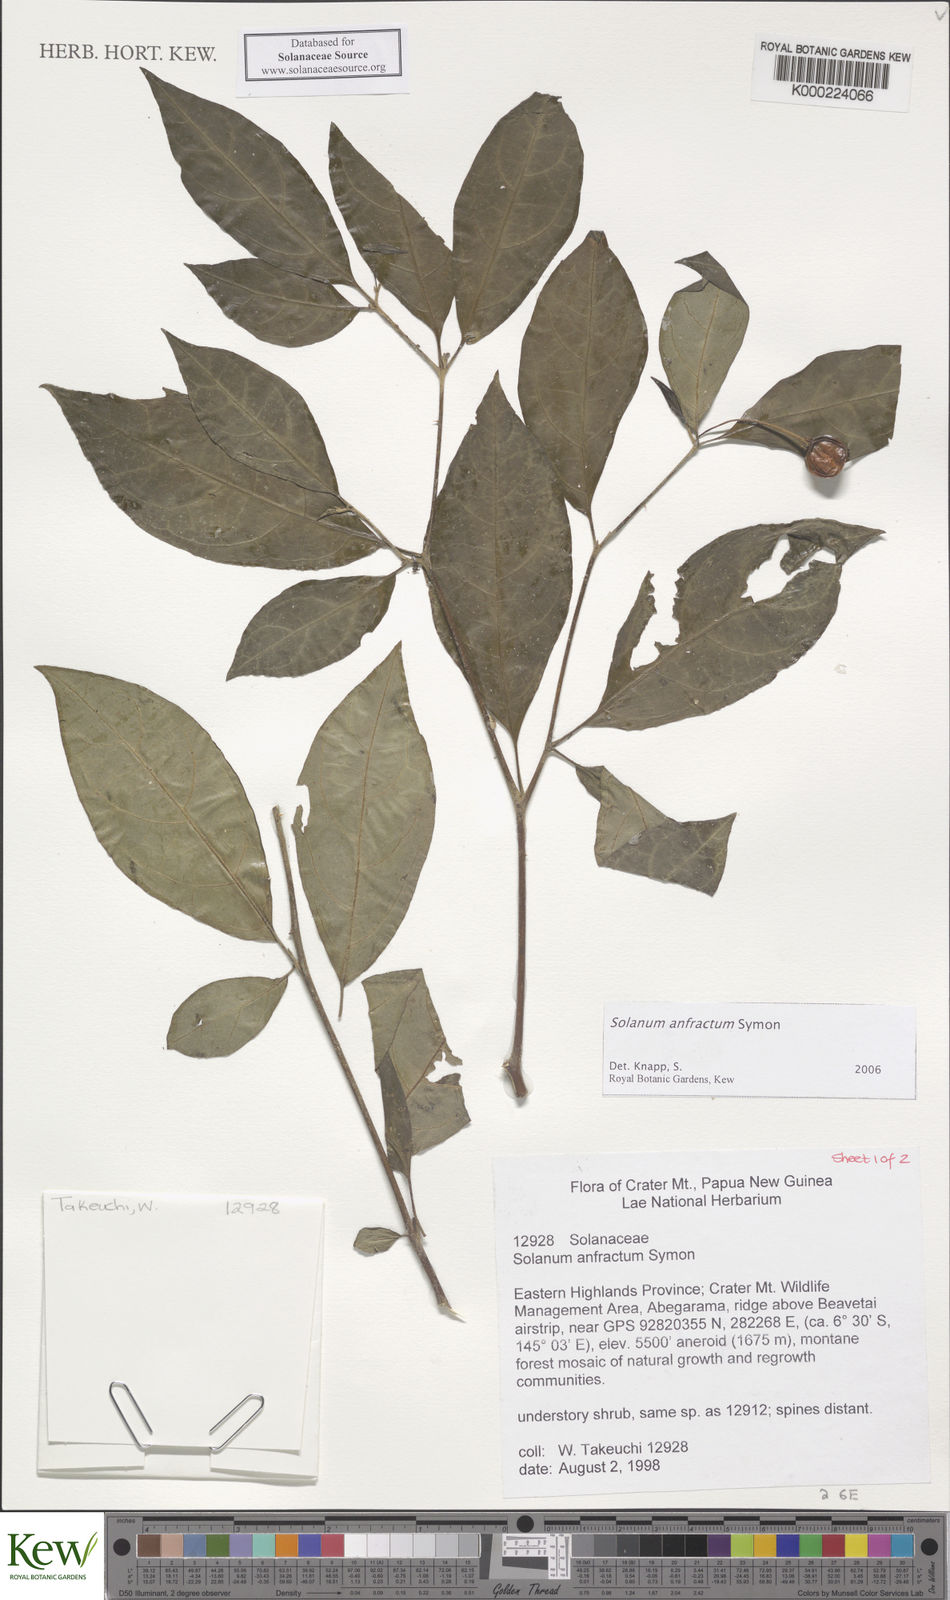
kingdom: Plantae
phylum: Tracheophyta
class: Magnoliopsida
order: Solanales
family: Solanaceae
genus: Solanum
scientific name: Solanum anfractum
